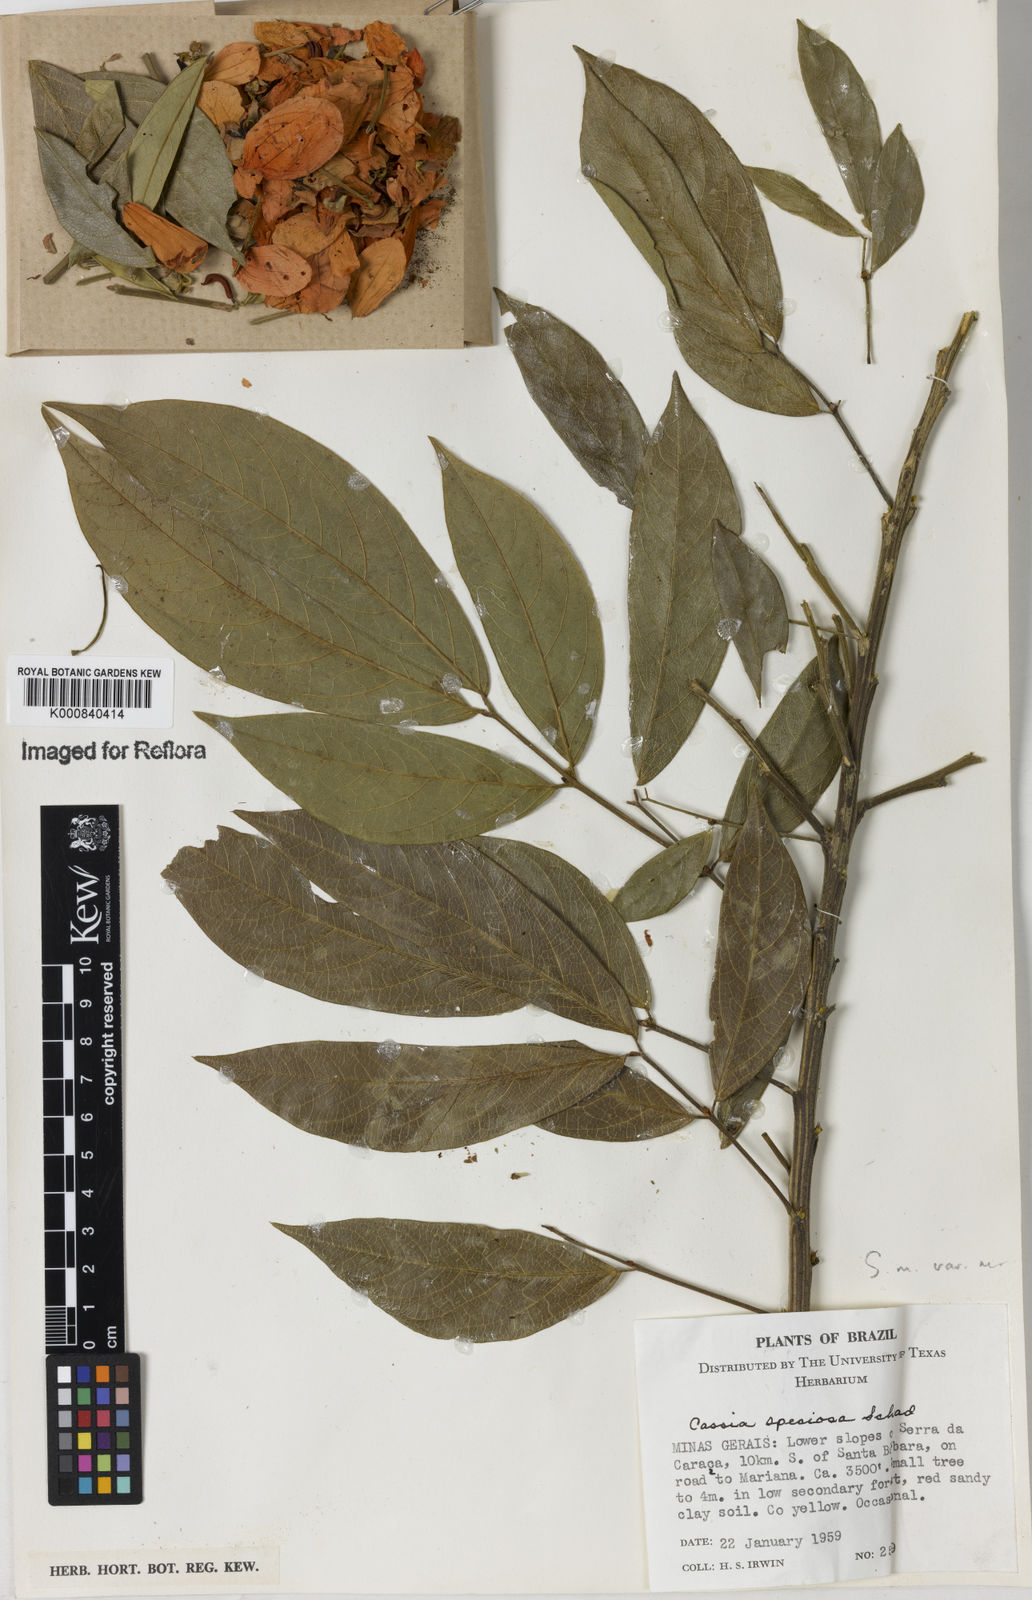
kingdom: Plantae
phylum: Tracheophyta
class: Magnoliopsida
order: Fabales
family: Fabaceae
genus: Senna
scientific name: Senna macranthera
